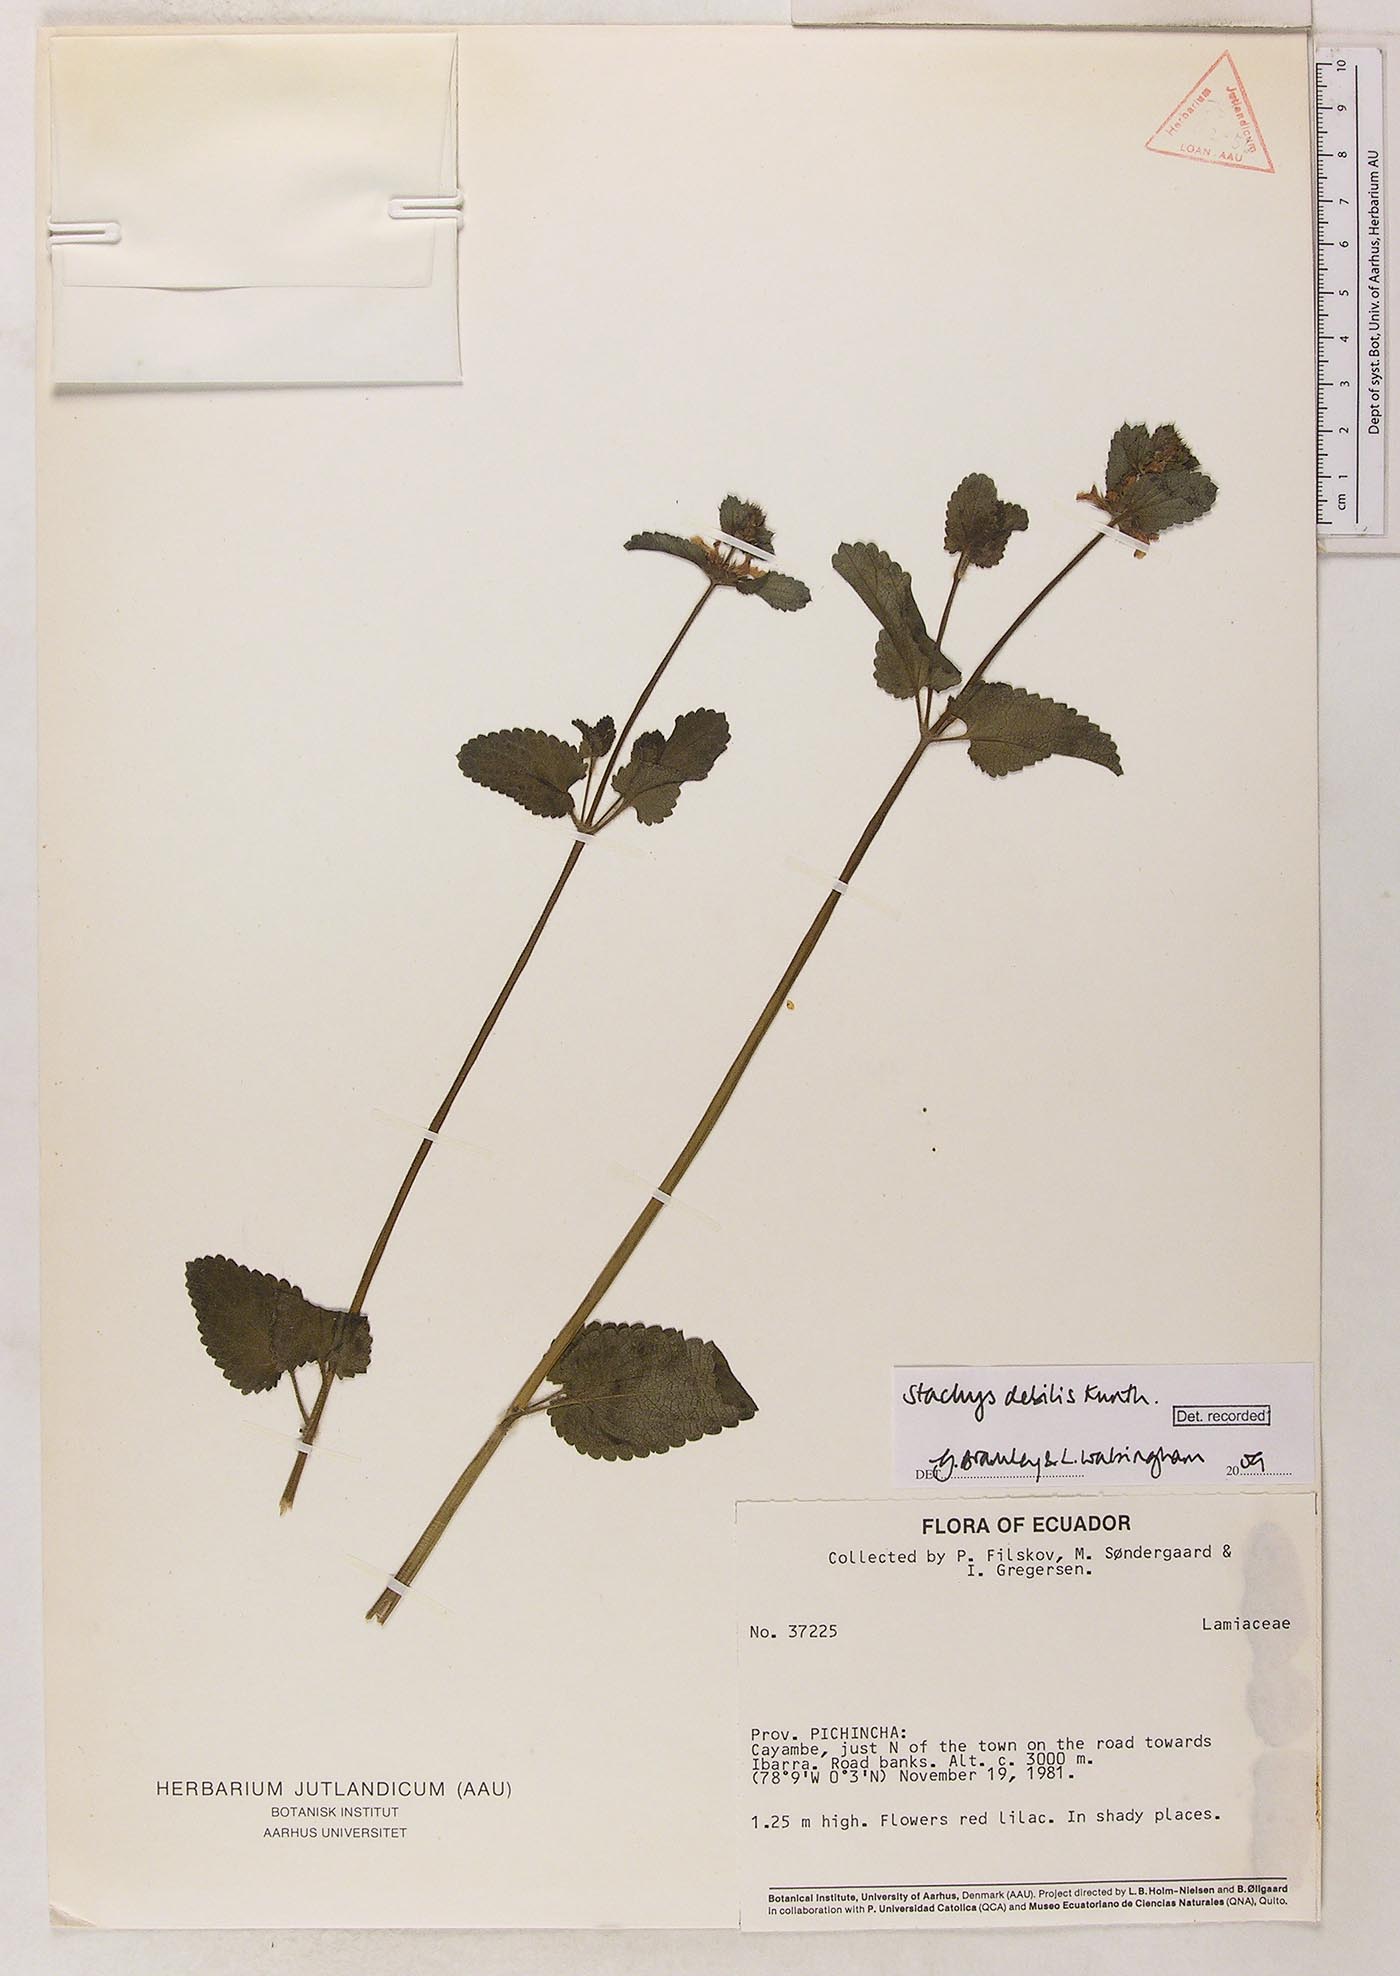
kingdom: Plantae
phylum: Tracheophyta
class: Magnoliopsida
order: Lamiales
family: Lamiaceae
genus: Stachys
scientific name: Stachys debilis
